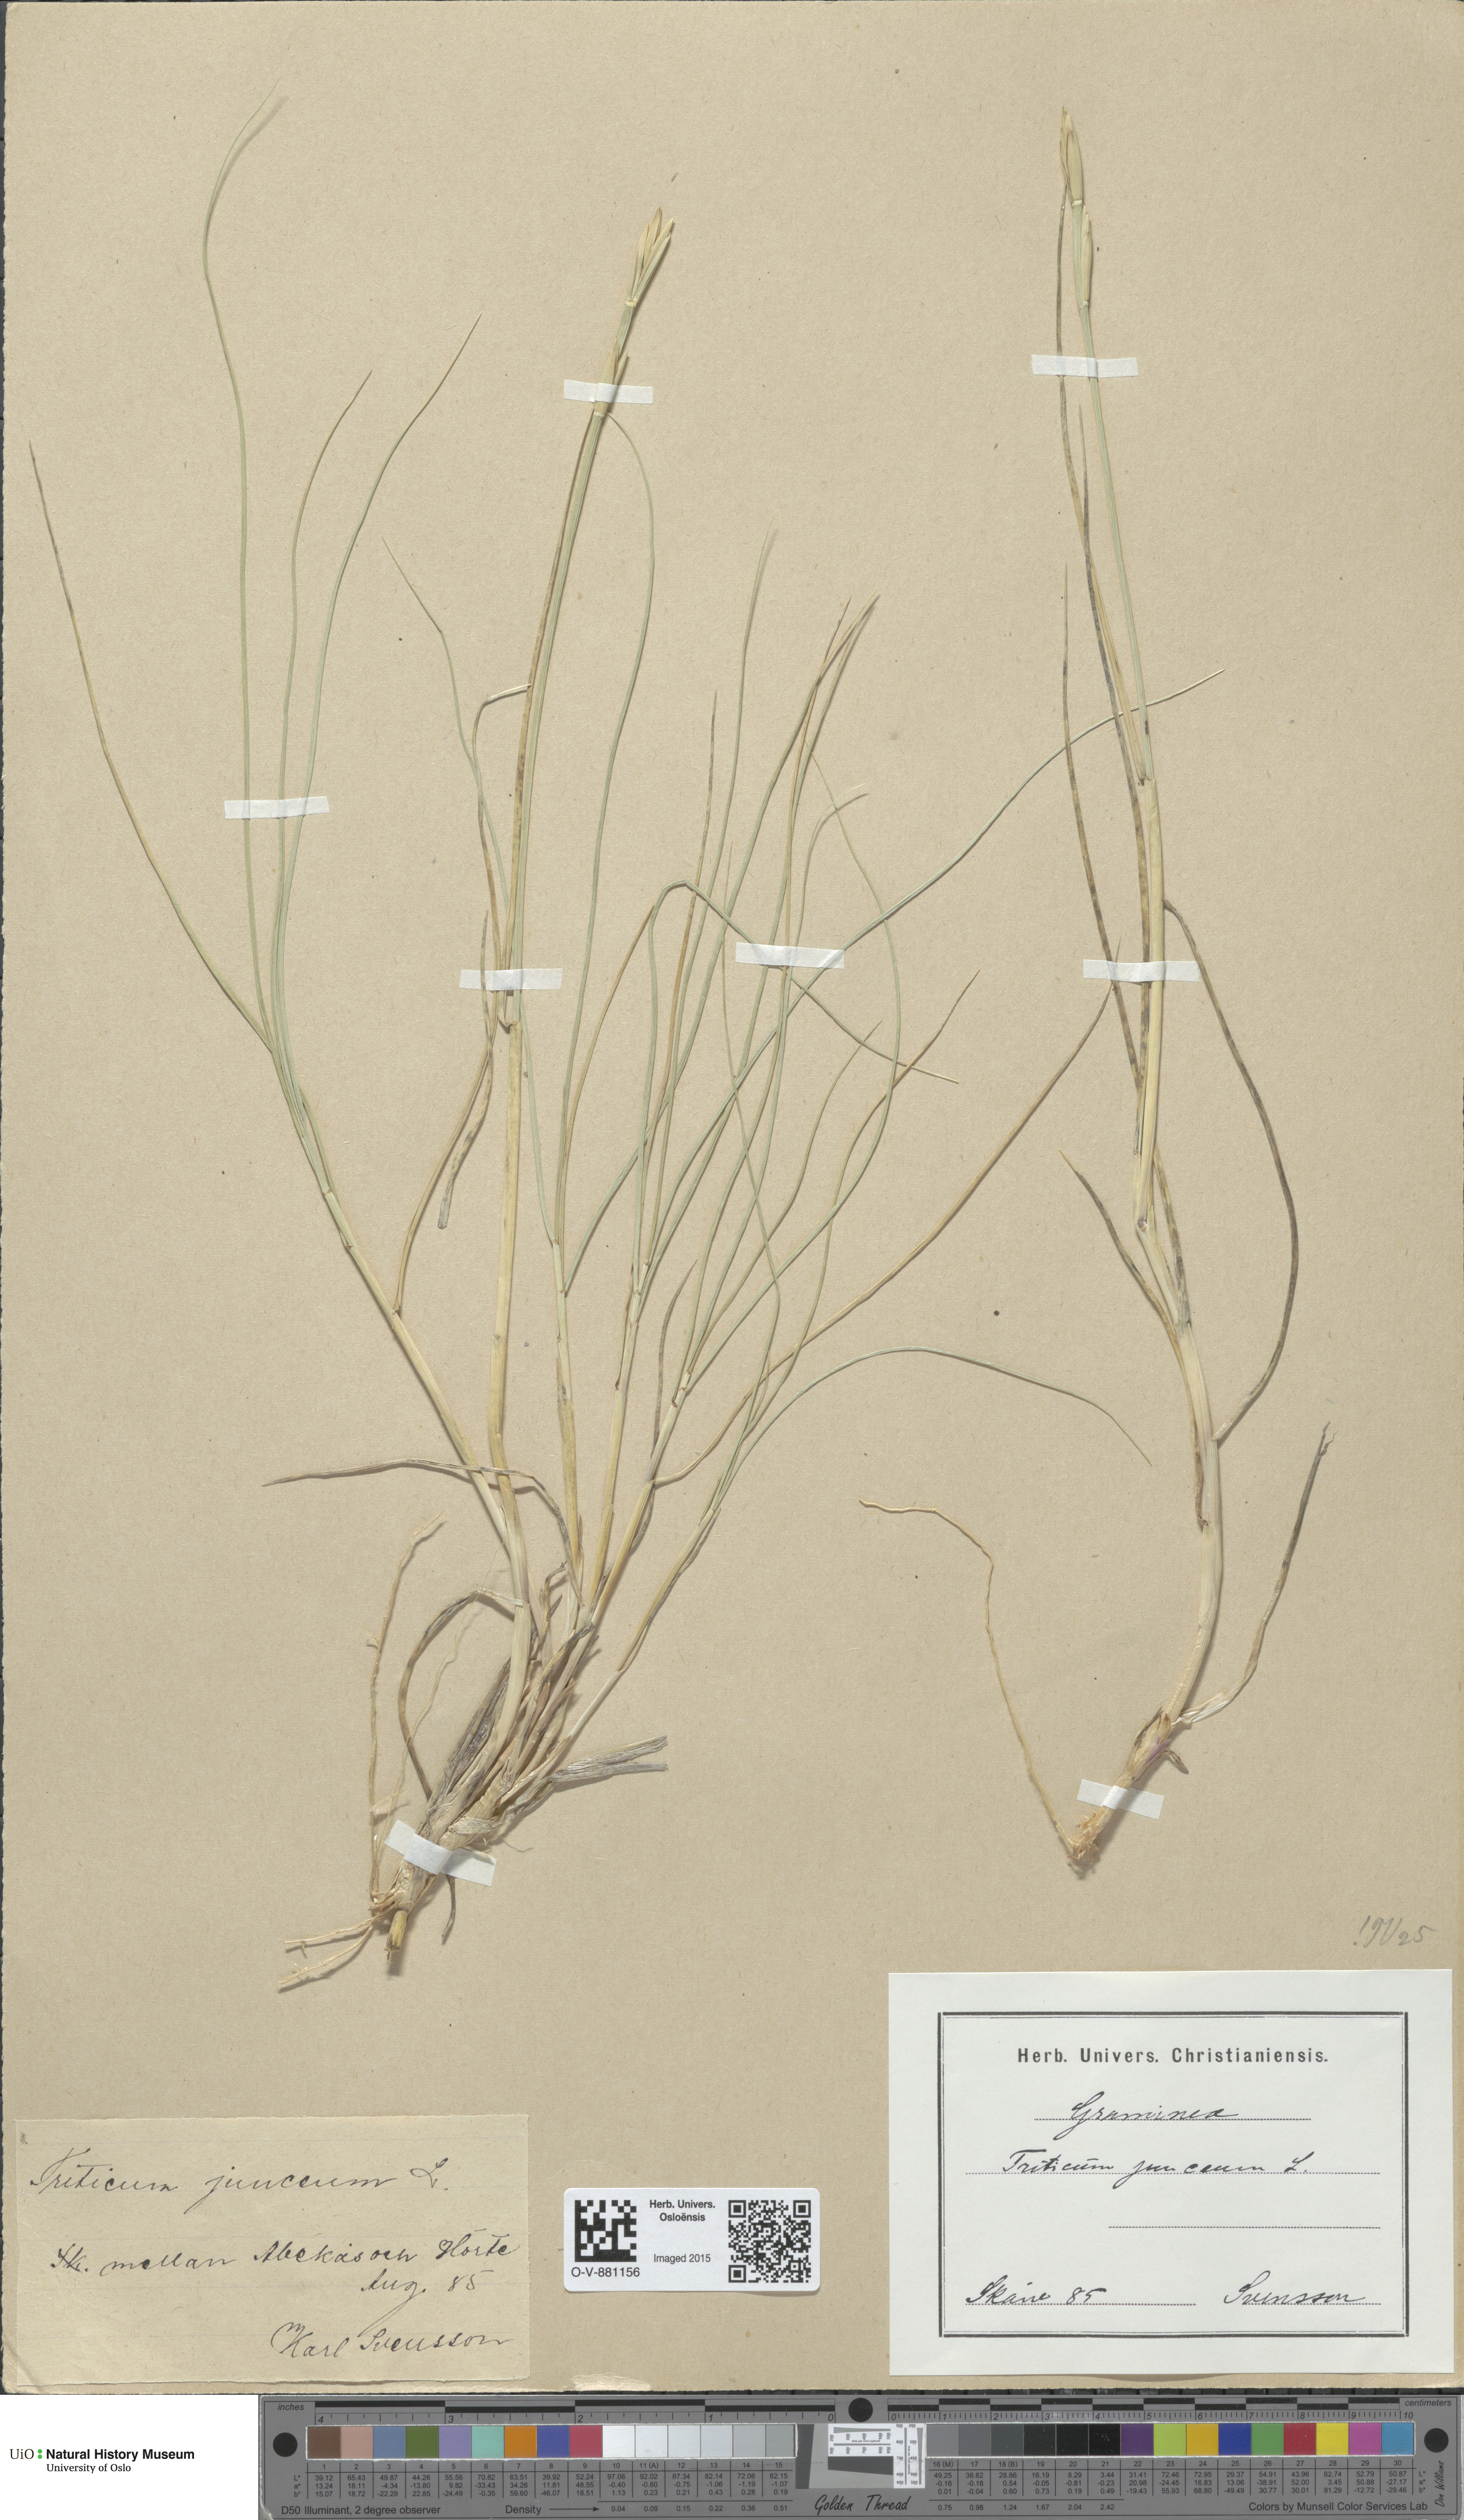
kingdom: Plantae
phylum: Tracheophyta
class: Liliopsida
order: Poales
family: Poaceae
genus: Thinopyrum
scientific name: Thinopyrum junceum
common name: Russian wheatgrass
